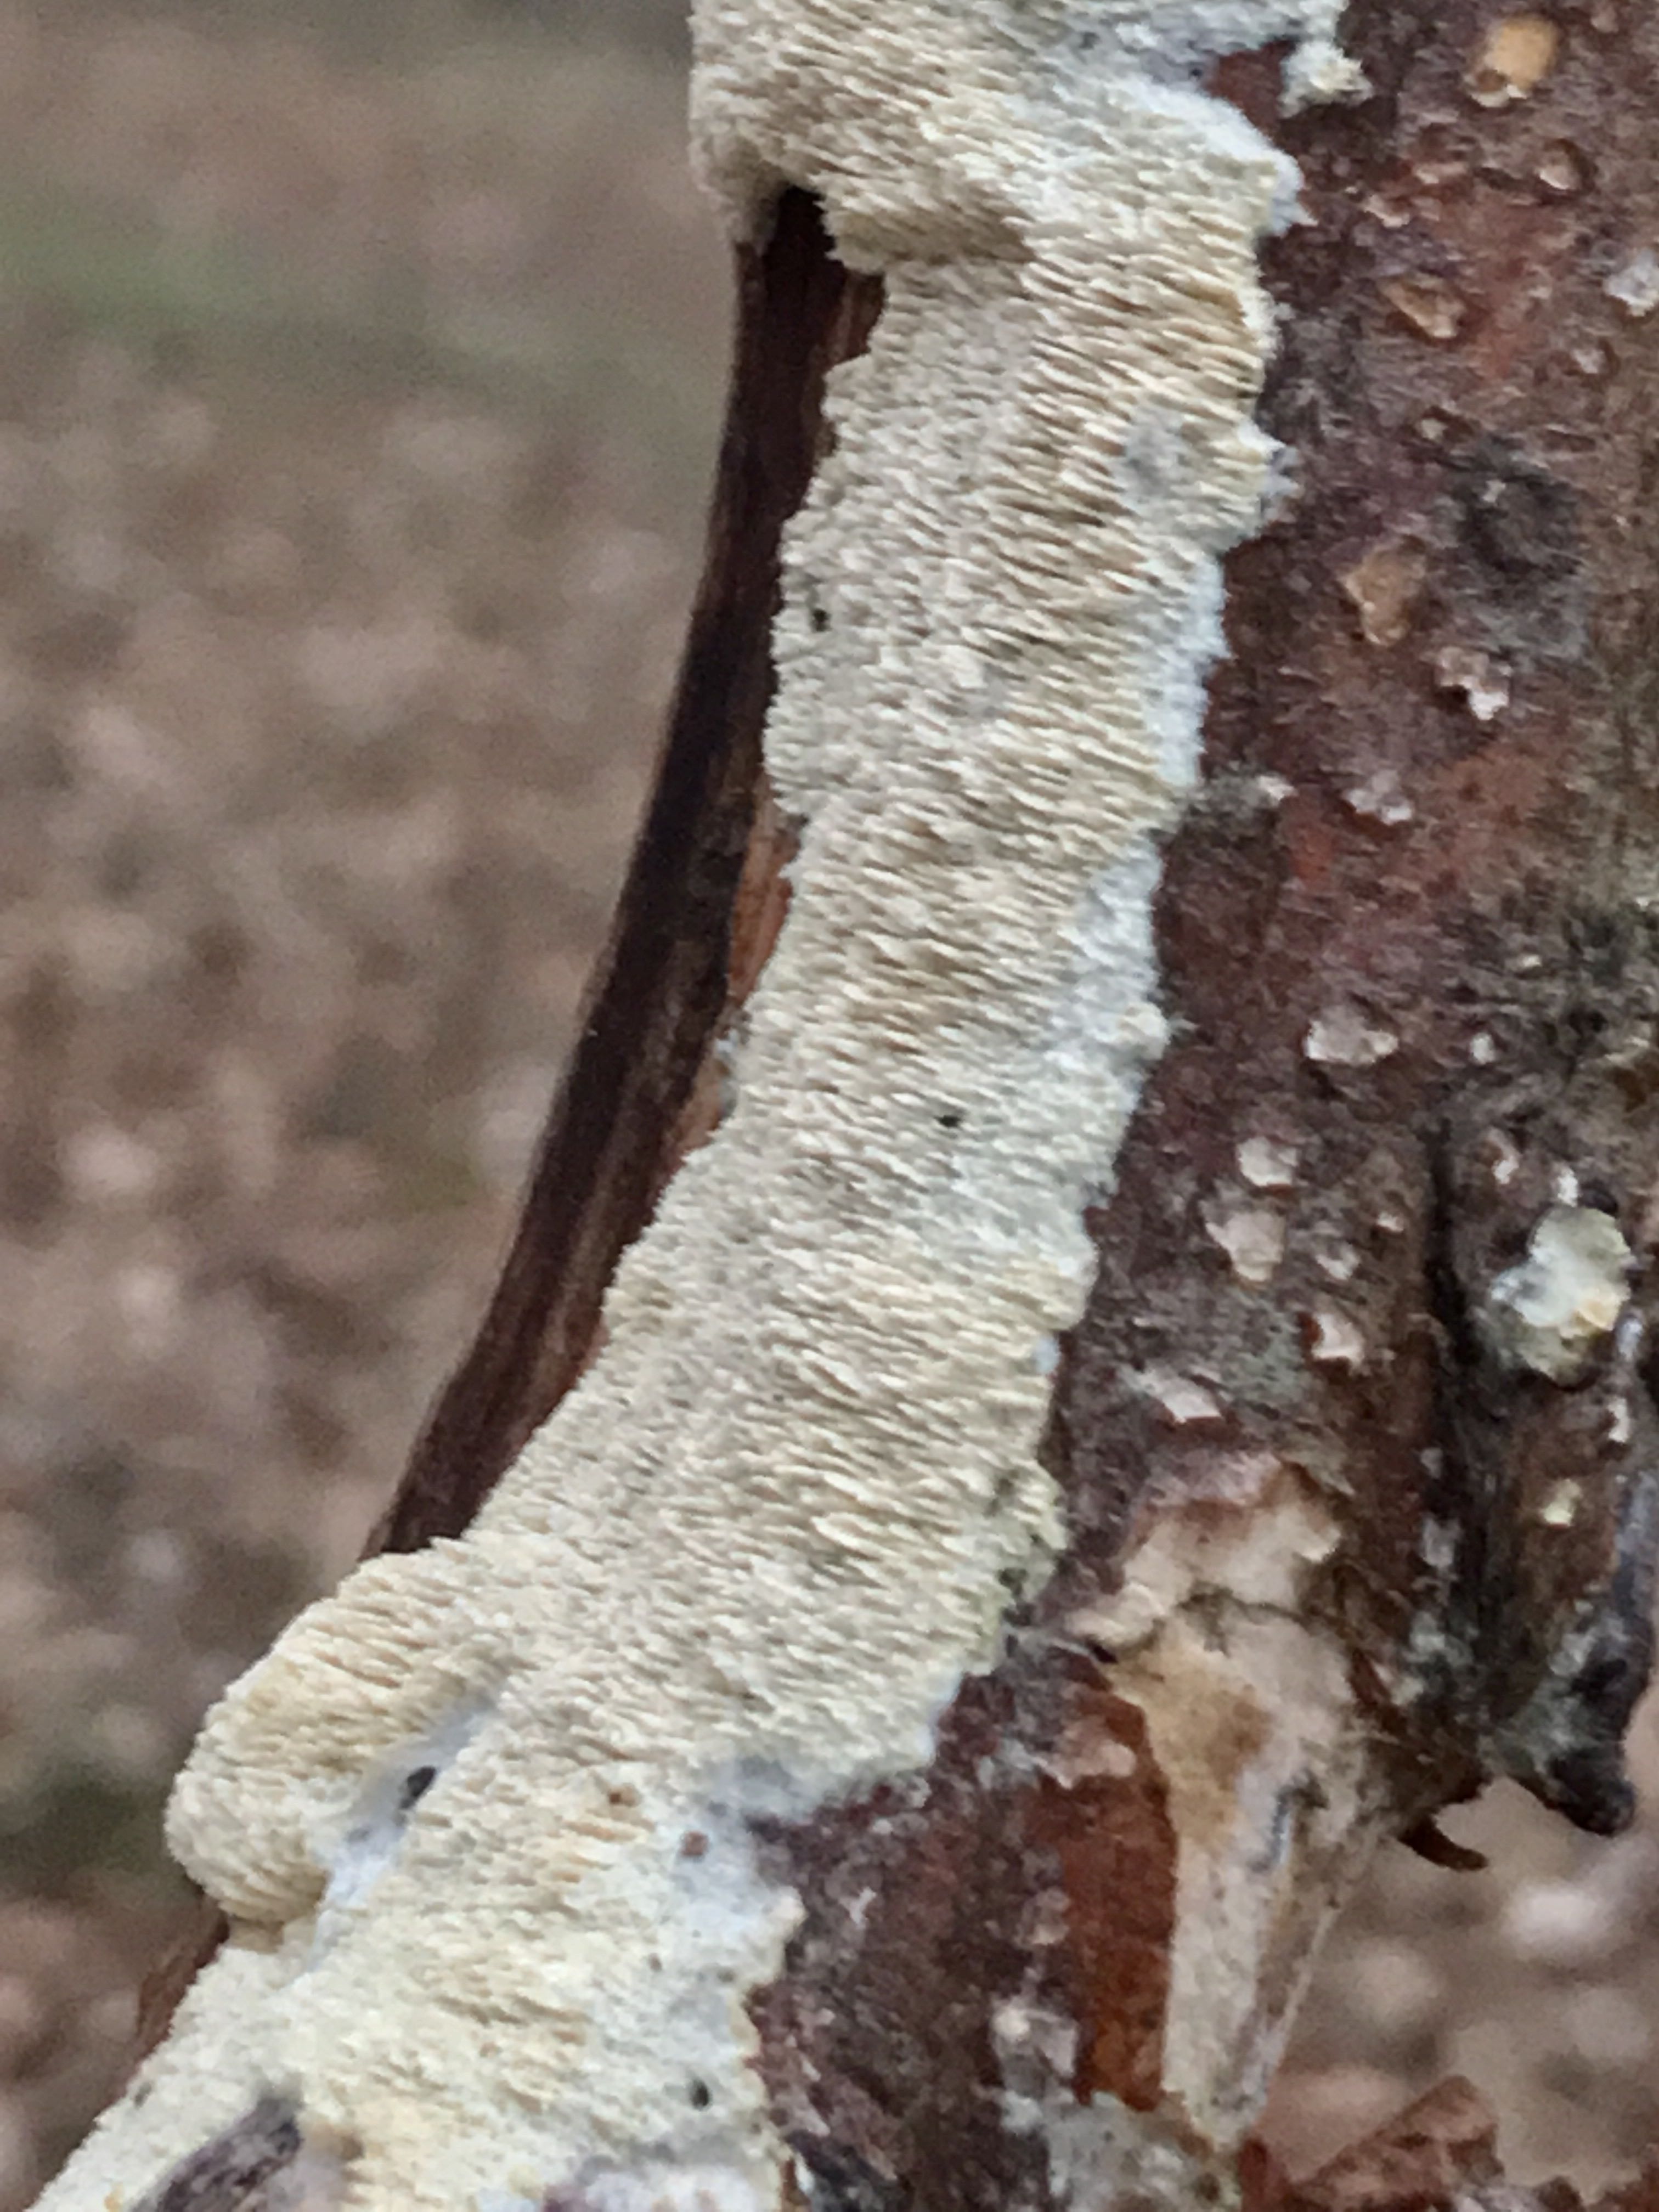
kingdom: Fungi
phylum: Basidiomycota
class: Agaricomycetes
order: Hymenochaetales
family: Schizoporaceae
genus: Schizopora
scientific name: Schizopora paradoxa
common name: hvid tandsvamp
